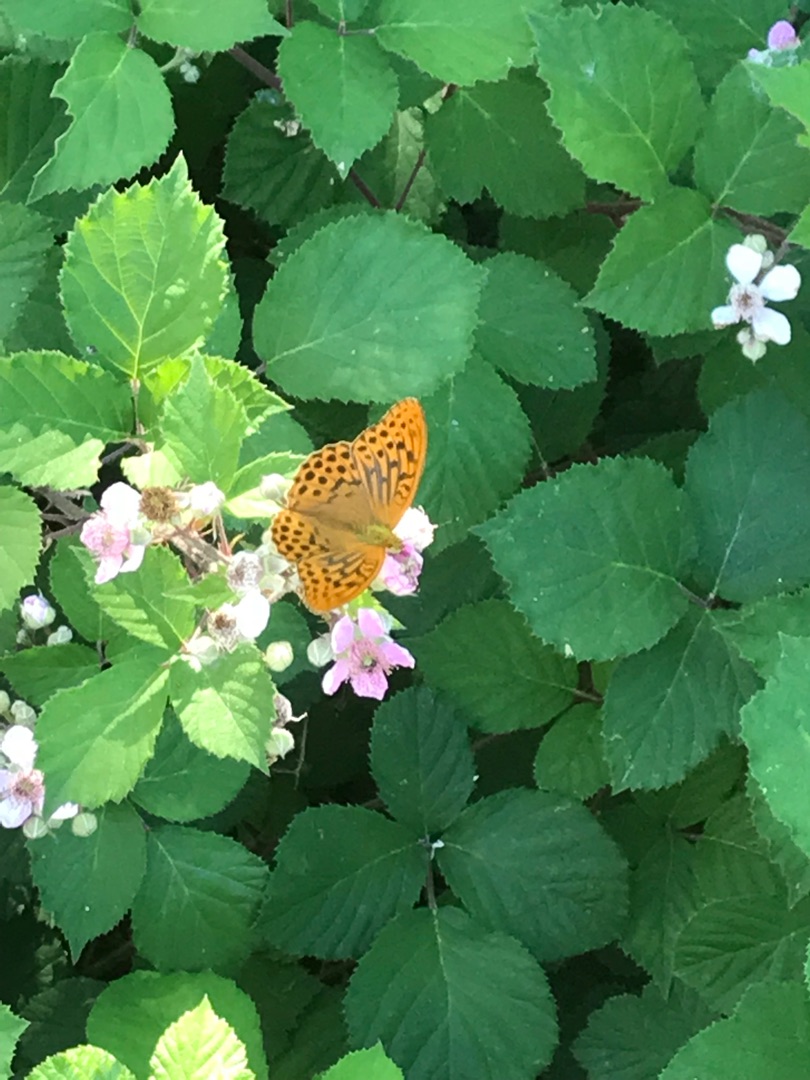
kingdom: Animalia
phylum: Arthropoda
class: Insecta
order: Lepidoptera
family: Nymphalidae
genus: Argynnis
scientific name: Argynnis paphia
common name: Kejserkåbe
